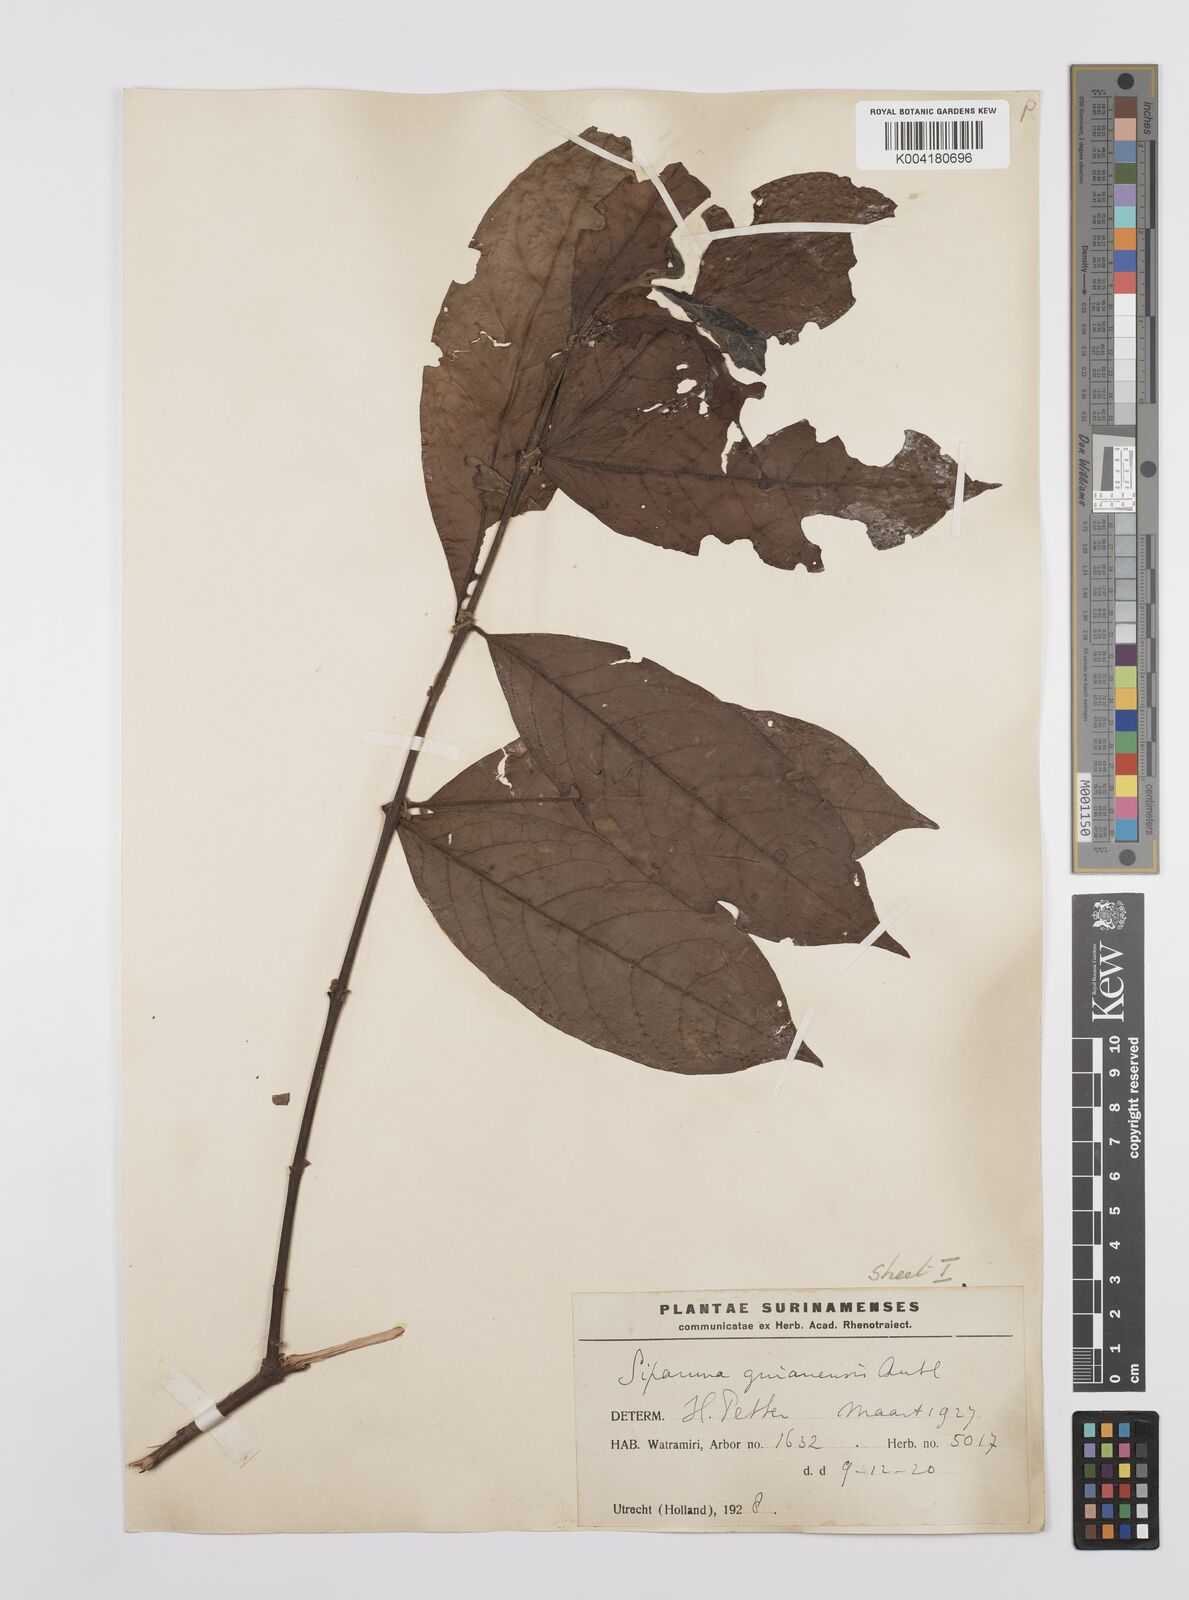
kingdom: Plantae
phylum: Tracheophyta
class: Magnoliopsida
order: Laurales
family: Siparunaceae
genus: Siparuna
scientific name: Siparuna guianensis
